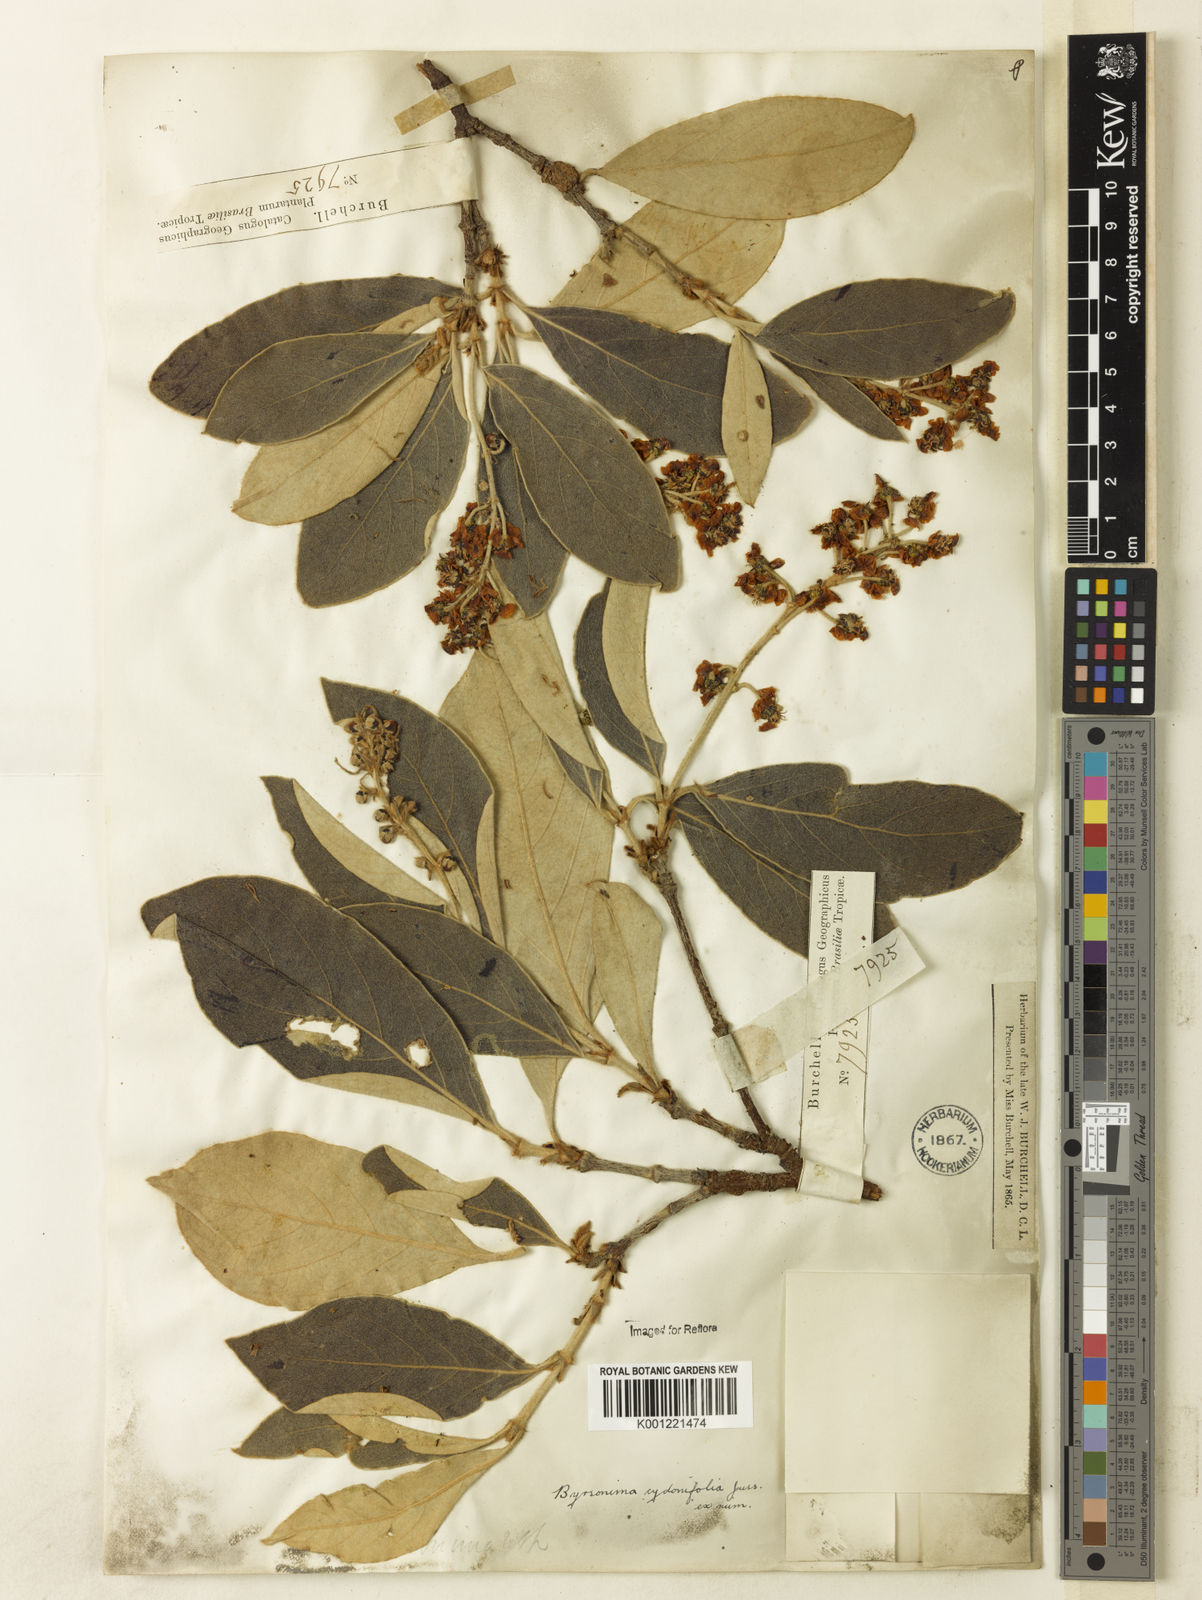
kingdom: Plantae
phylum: Tracheophyta
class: Magnoliopsida
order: Malpighiales
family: Malpighiaceae
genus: Byrsonima
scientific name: Byrsonima cydoniifolia
